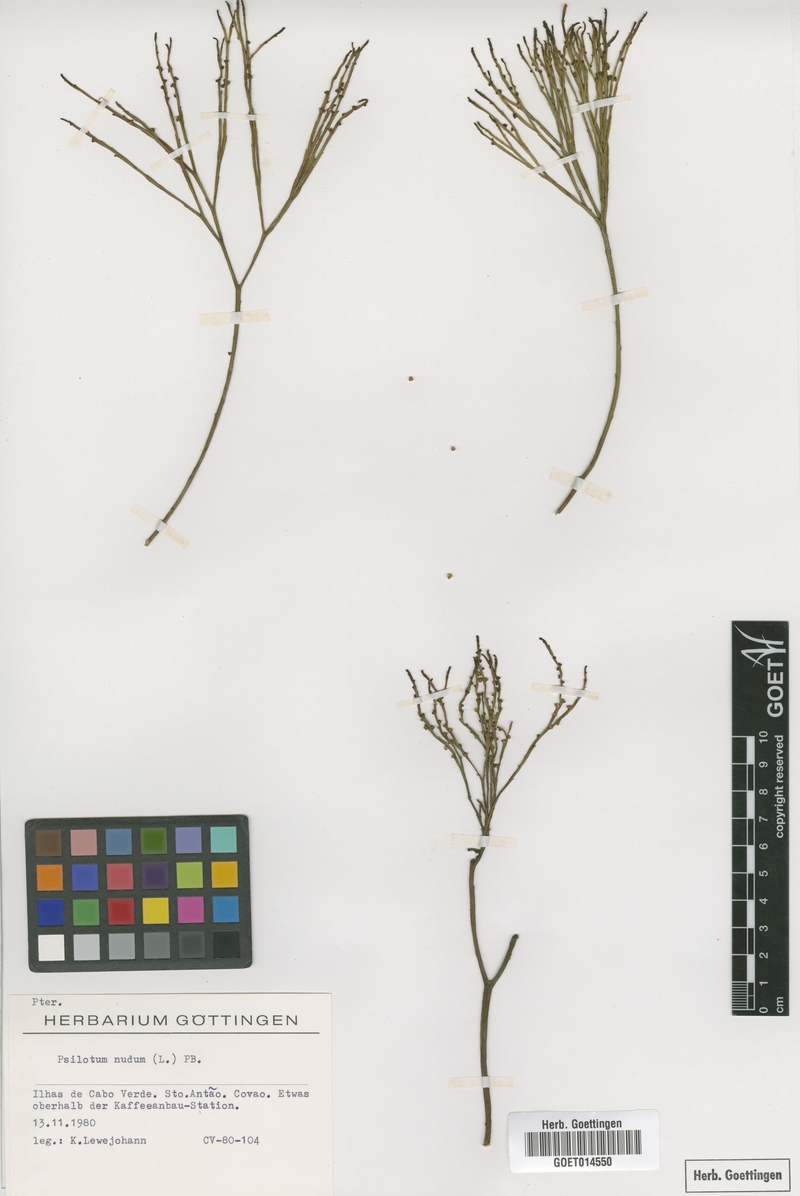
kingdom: Plantae
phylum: Tracheophyta
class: Polypodiopsida
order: Psilotales
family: Psilotaceae
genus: Psilotum
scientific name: Psilotum nudum
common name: Skeleton fork fern
